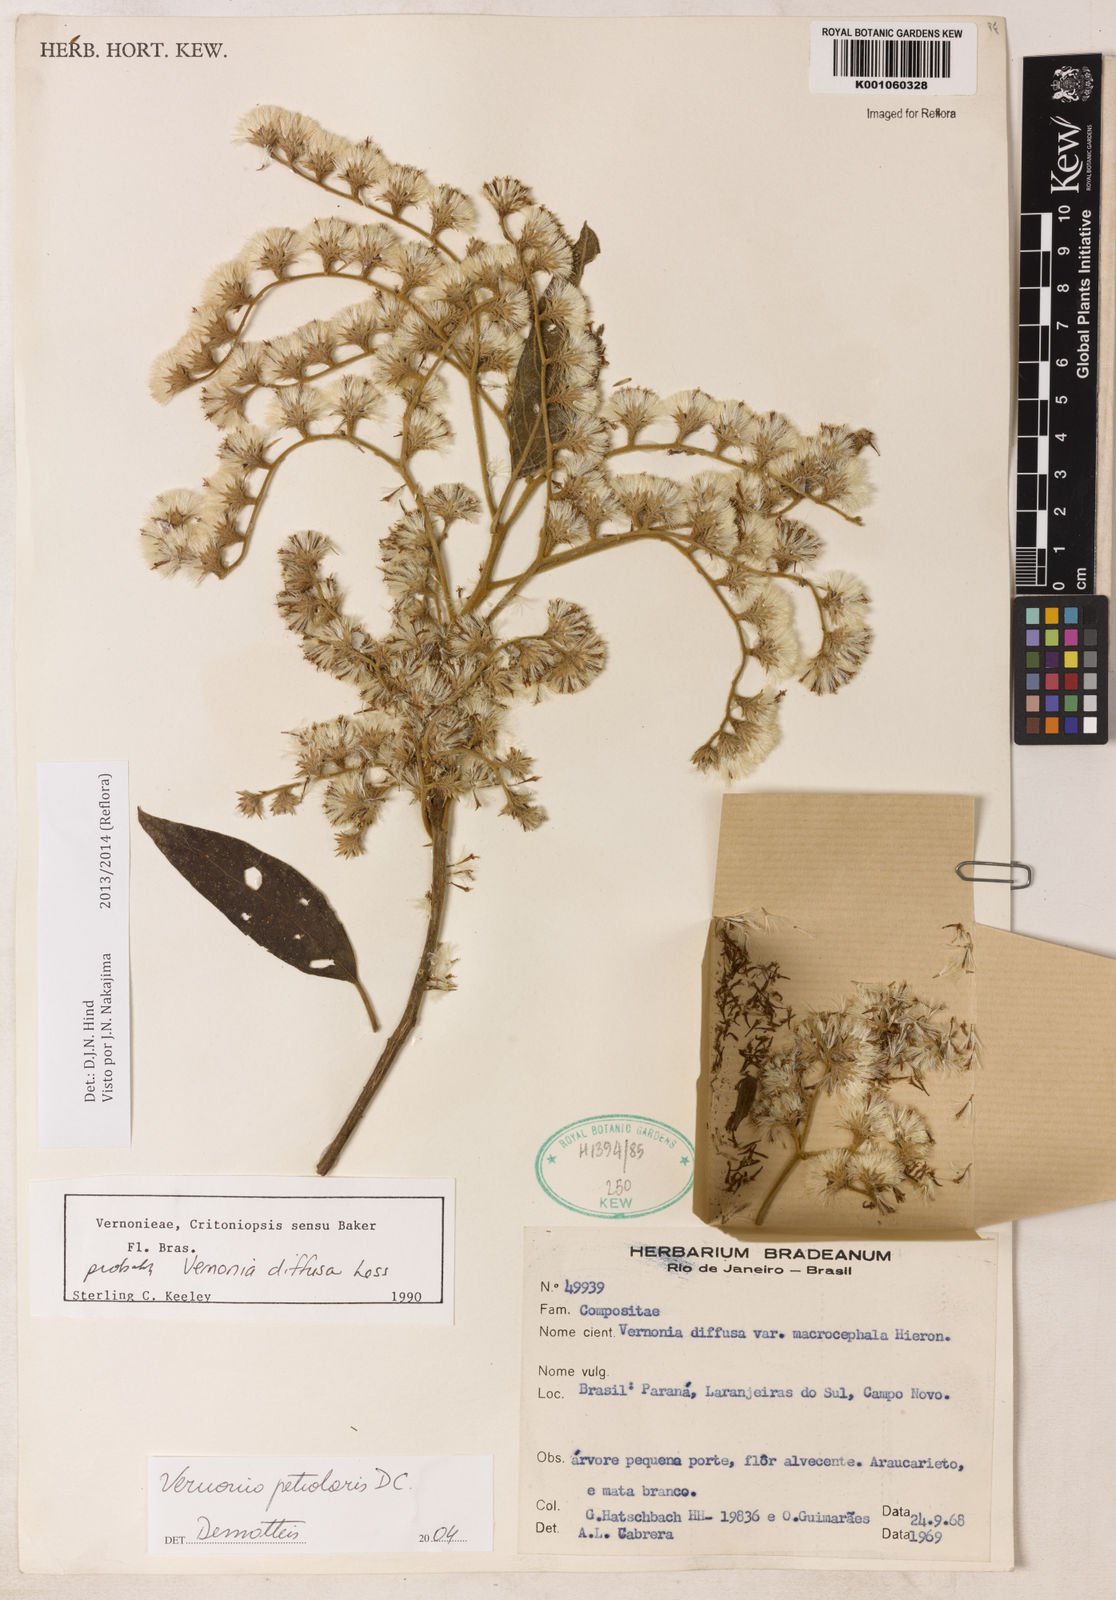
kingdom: Plantae
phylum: Tracheophyta
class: Magnoliopsida
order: Asterales
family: Asteraceae
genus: Vernonanthura
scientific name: Vernonanthura petiolaris
